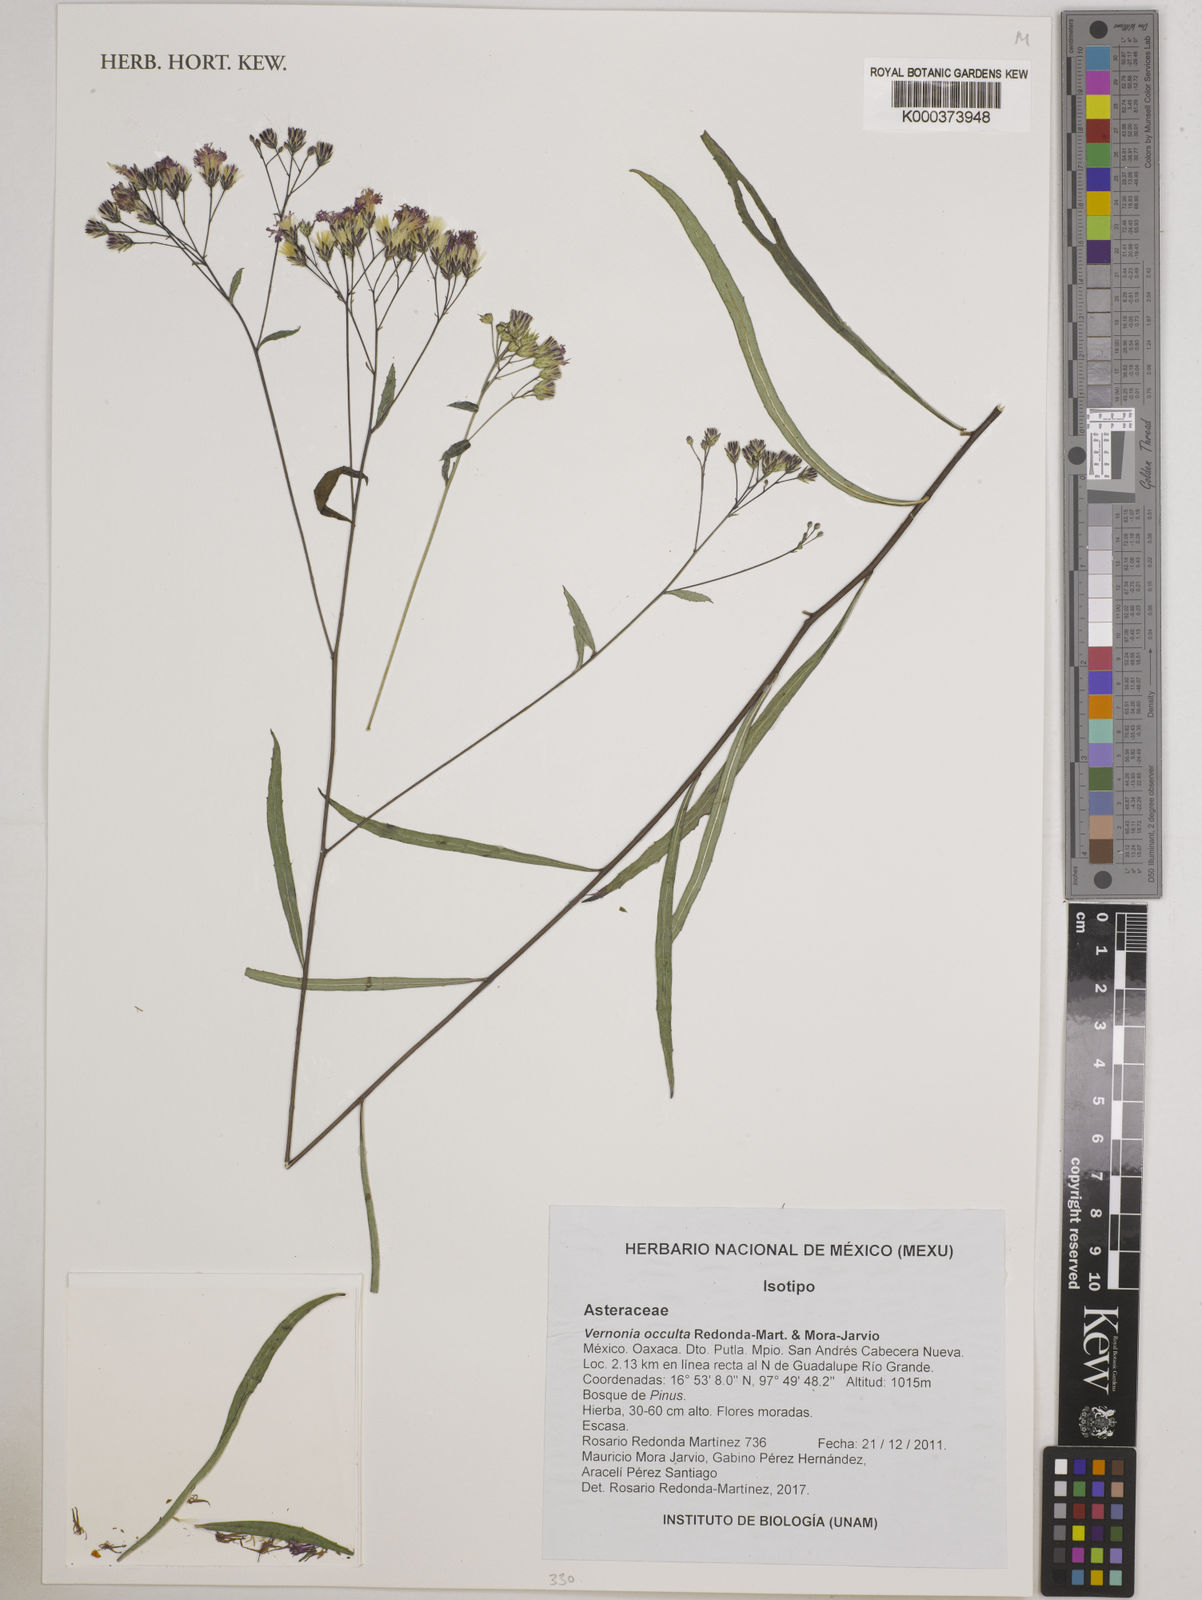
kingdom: Plantae
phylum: Tracheophyta
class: Magnoliopsida
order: Asterales
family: Asteraceae
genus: Vernonia
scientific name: Vernonia occulta
